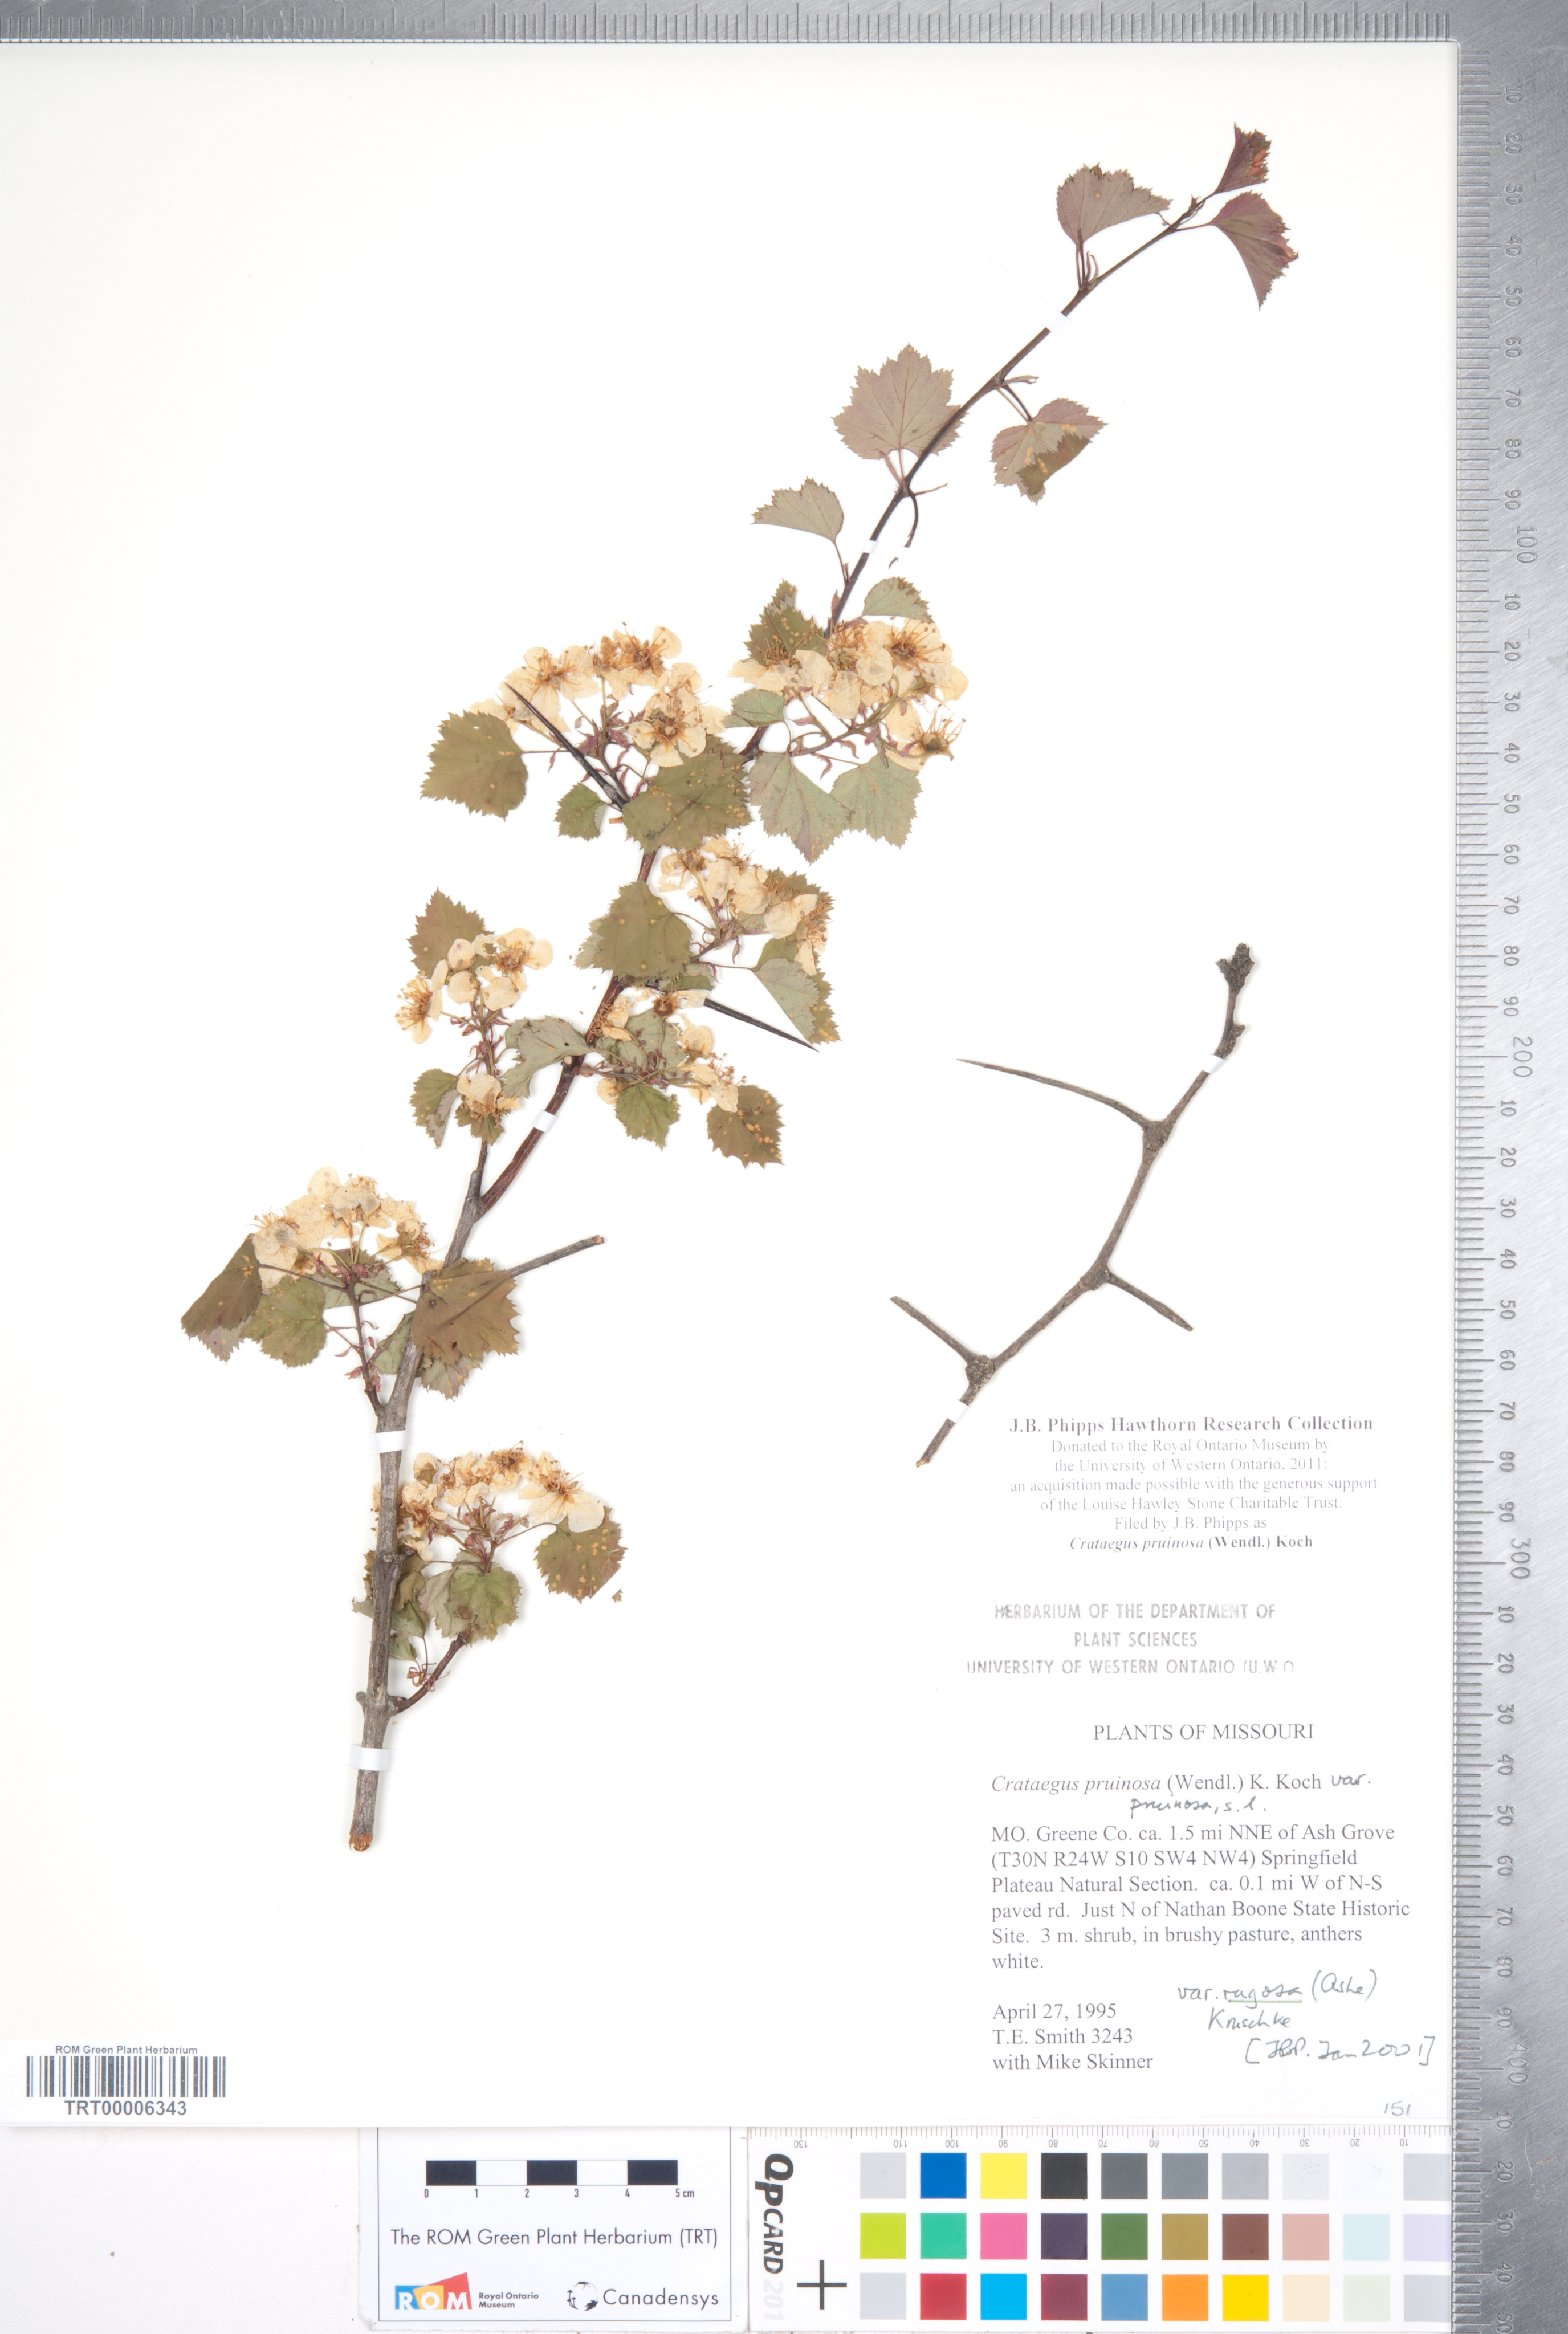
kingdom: Plantae
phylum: Tracheophyta
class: Magnoliopsida
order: Rosales
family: Rosaceae
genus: Crataegus
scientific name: Crataegus pruinosa
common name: Waxy-fruit hawthorn
